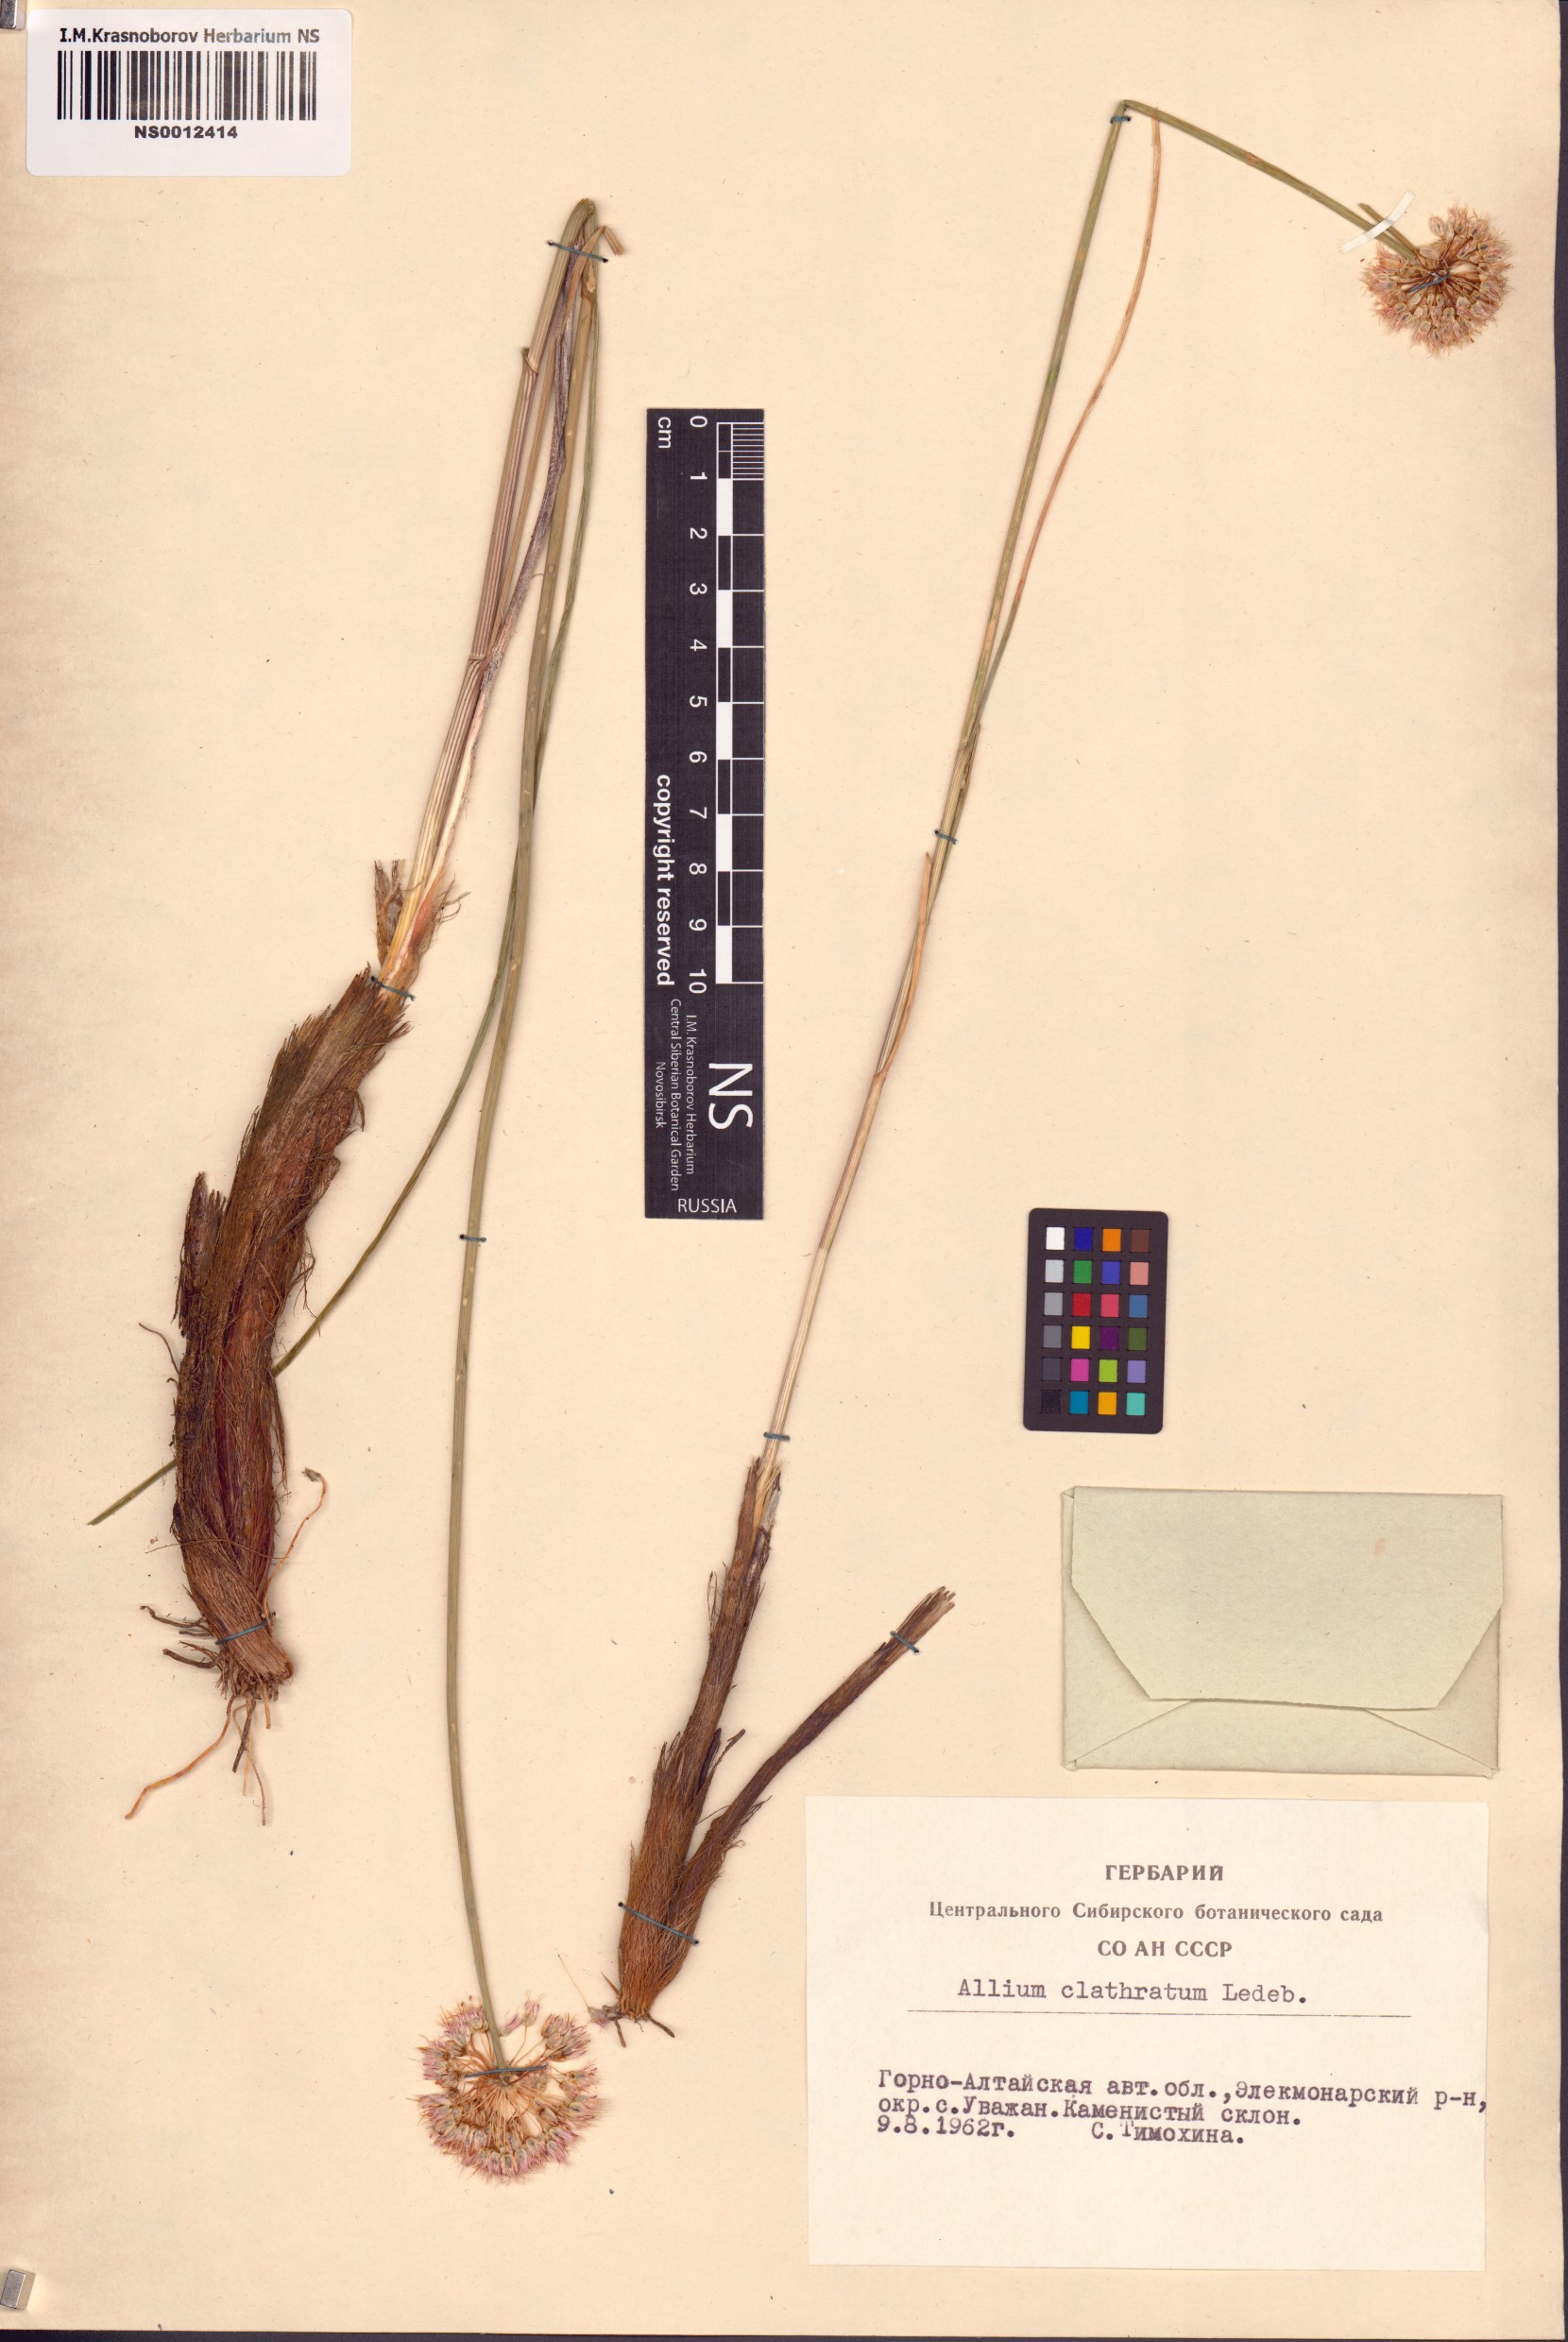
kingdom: Plantae
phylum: Tracheophyta
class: Liliopsida
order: Asparagales
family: Amaryllidaceae
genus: Allium
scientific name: Allium clathratum
